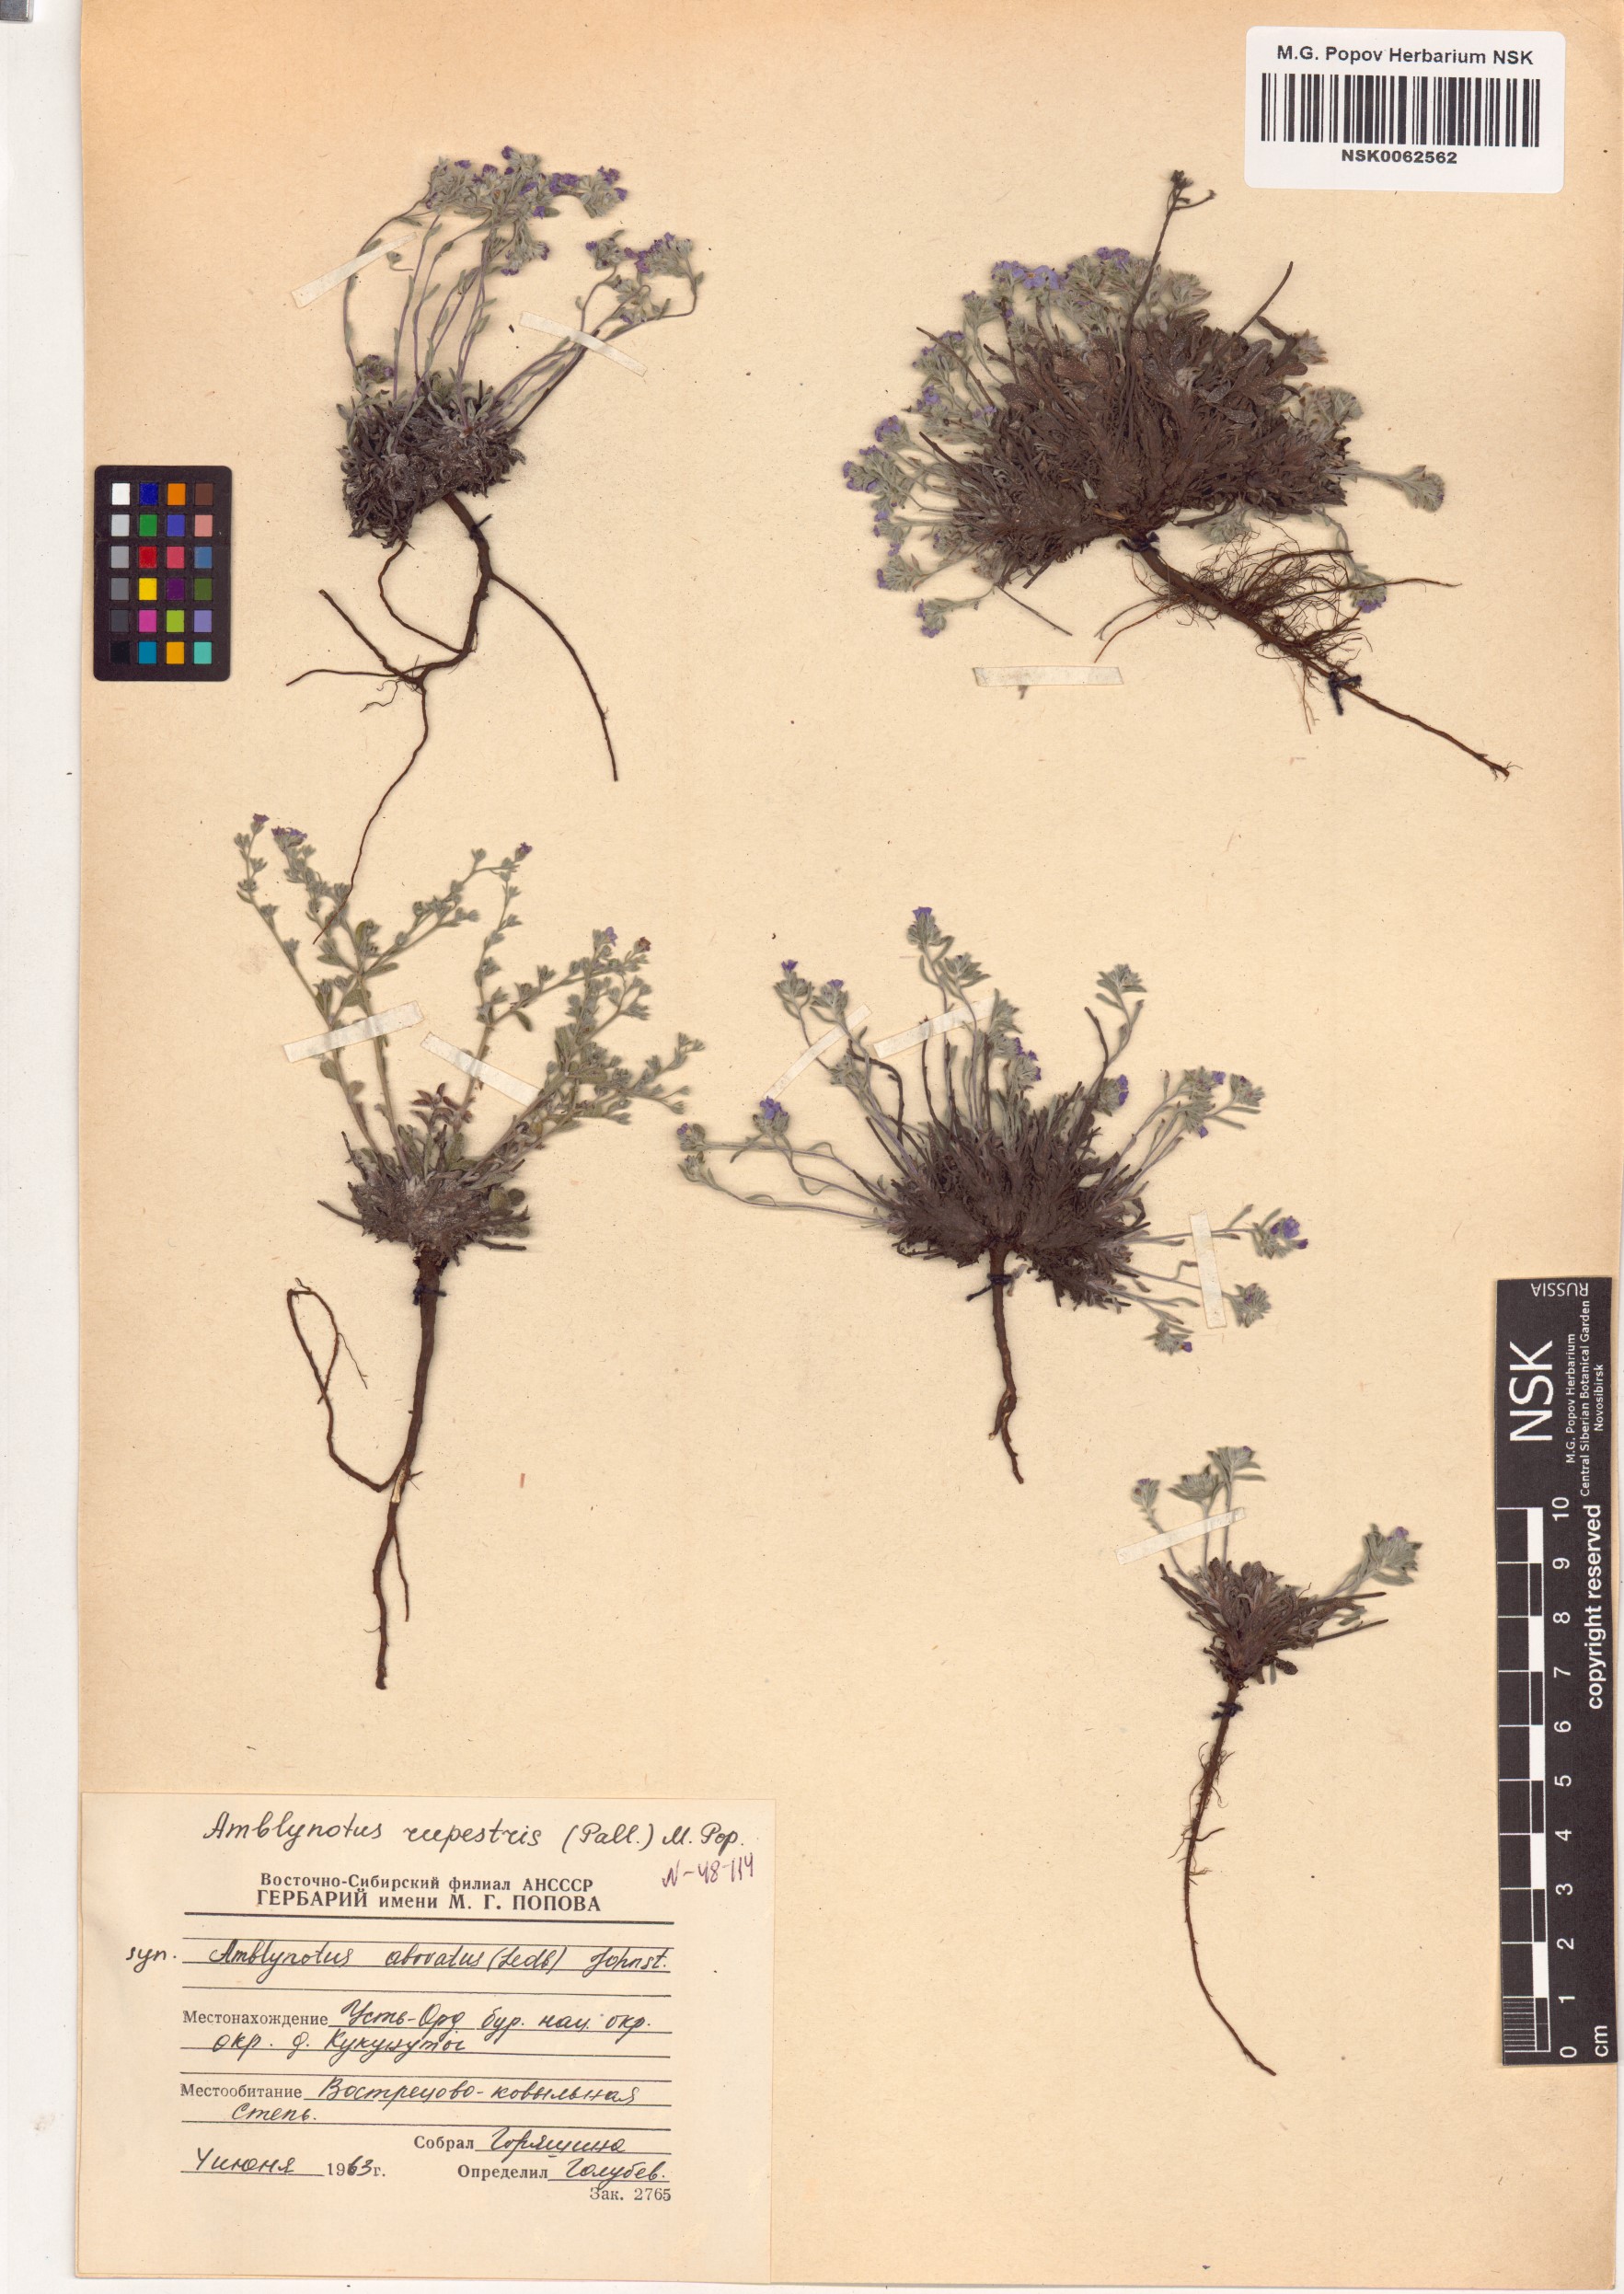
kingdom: Plantae
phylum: Tracheophyta
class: Magnoliopsida
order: Boraginales
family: Boraginaceae
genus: Eritrichium
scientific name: Eritrichium rupestre
